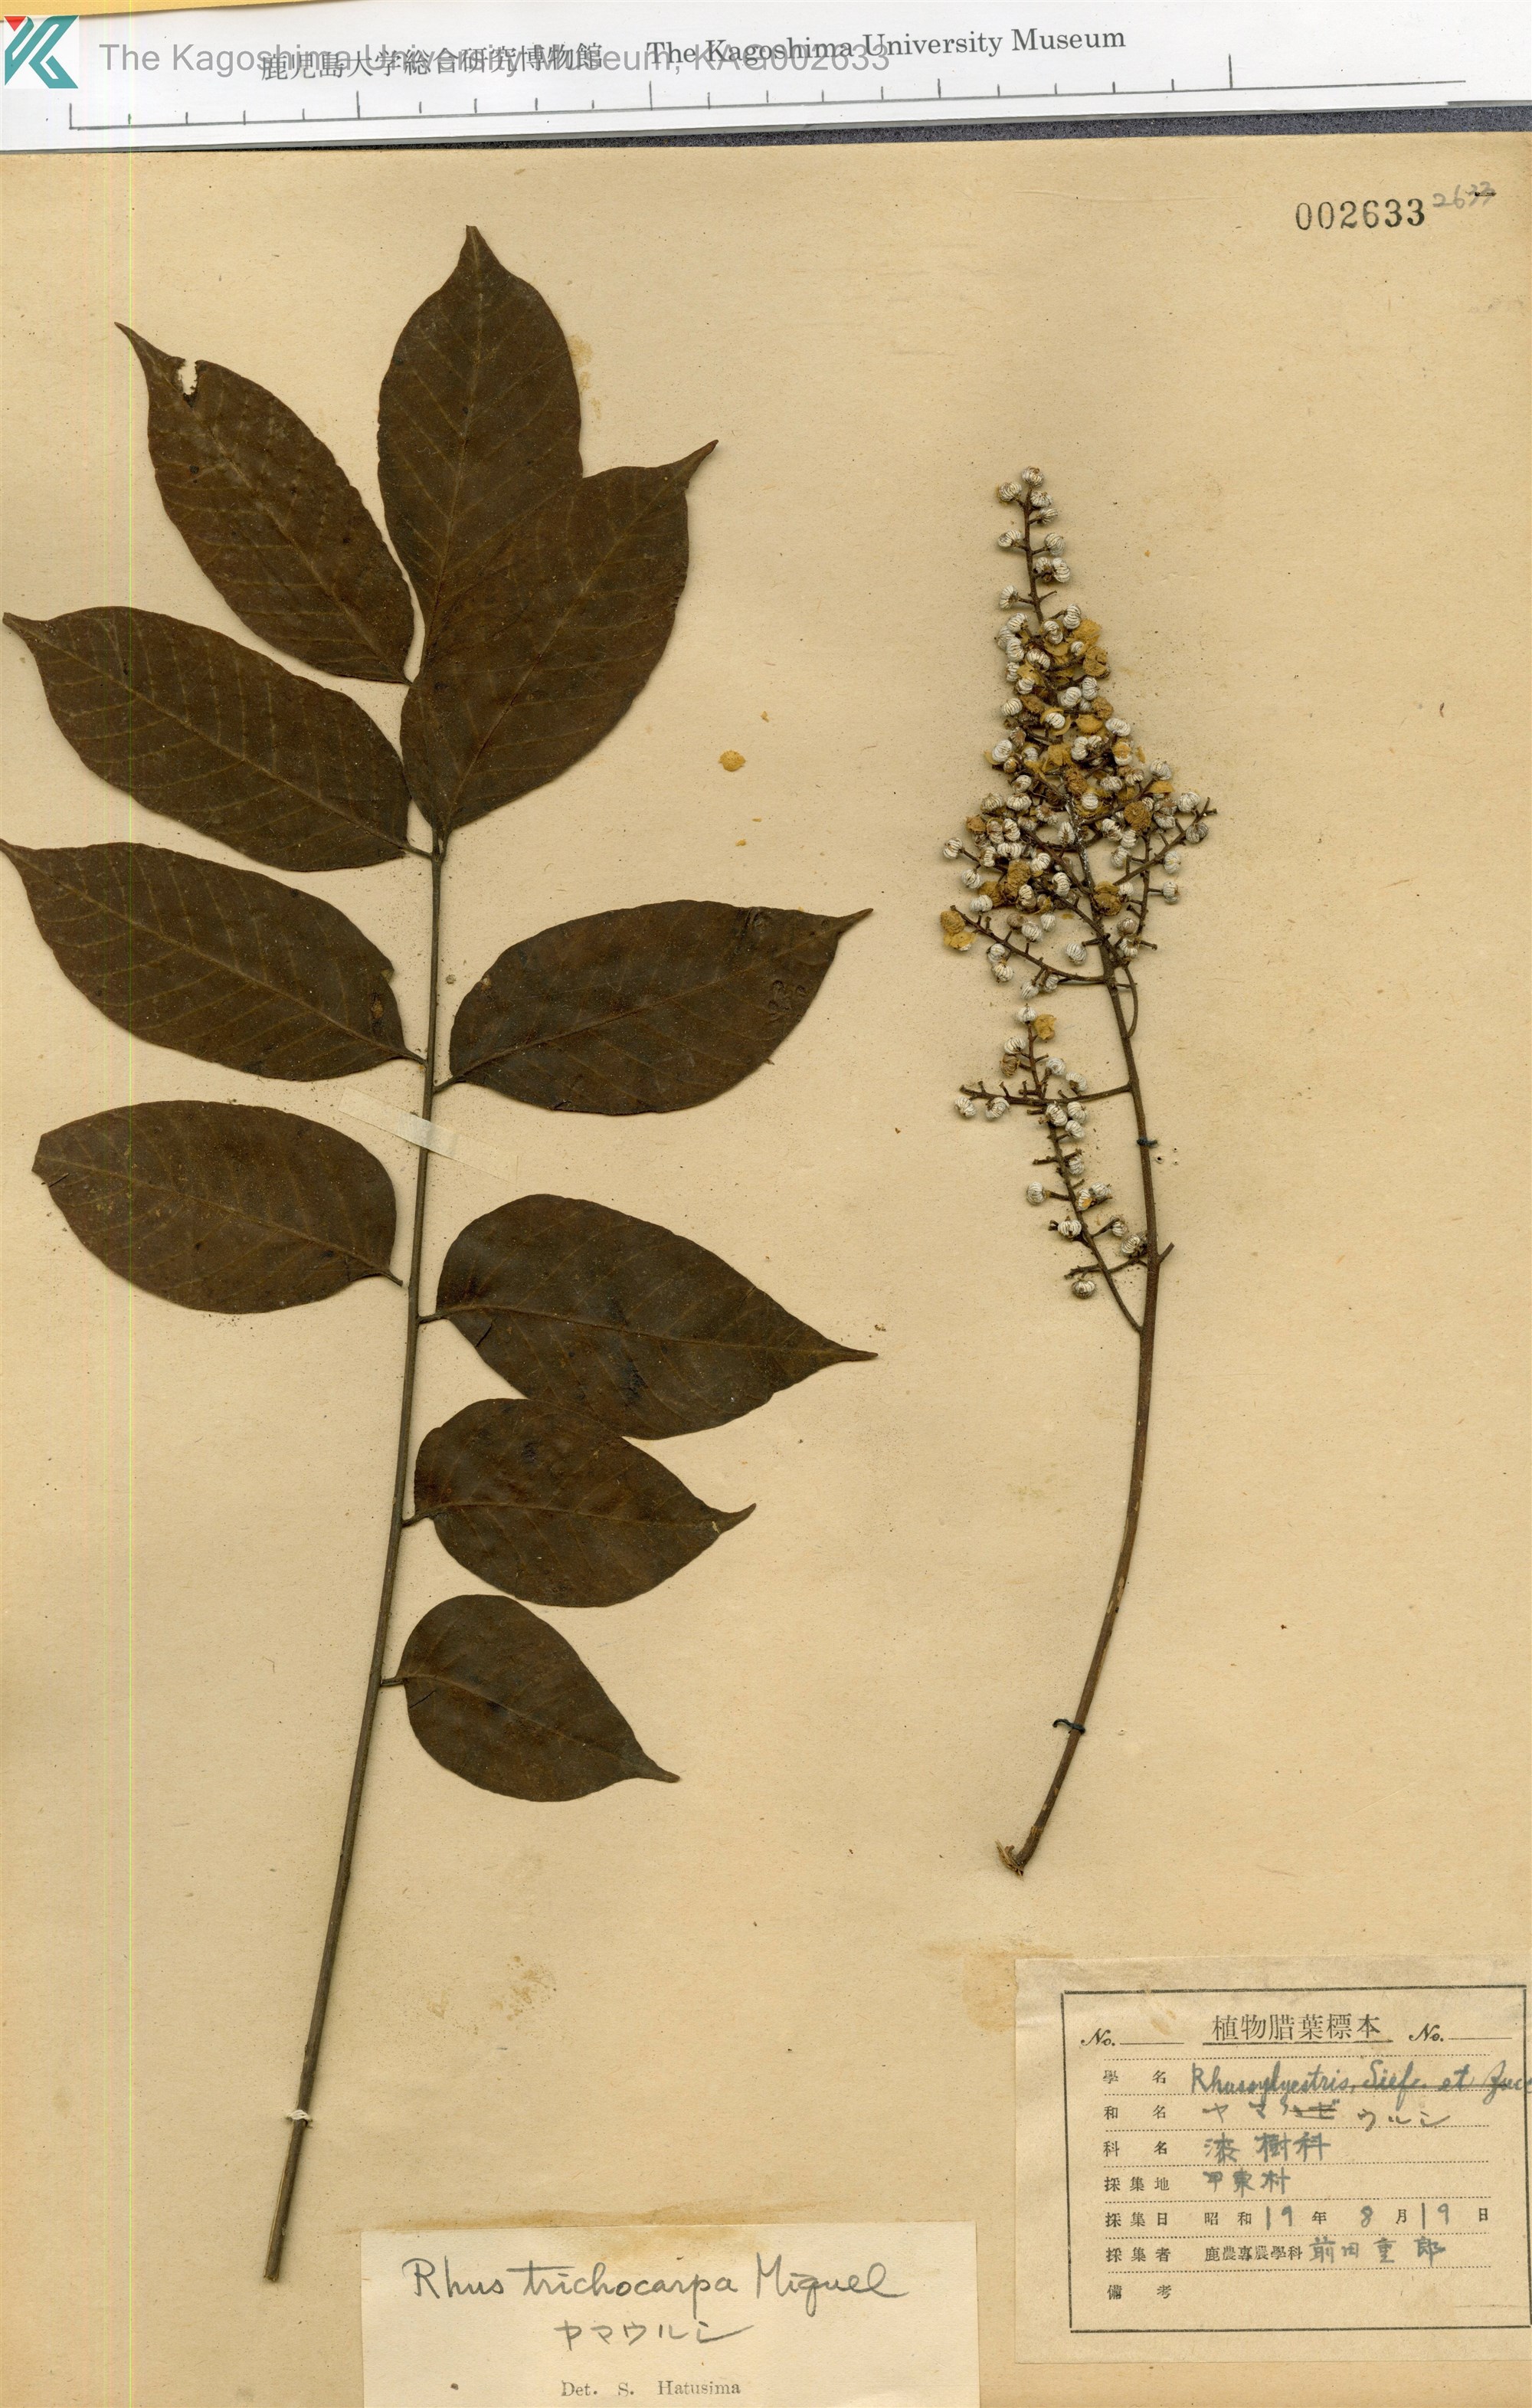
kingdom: Plantae
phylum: Tracheophyta
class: Magnoliopsida
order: Sapindales
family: Anacardiaceae
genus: Toxicodendron
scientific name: Toxicodendron trichocarpum
